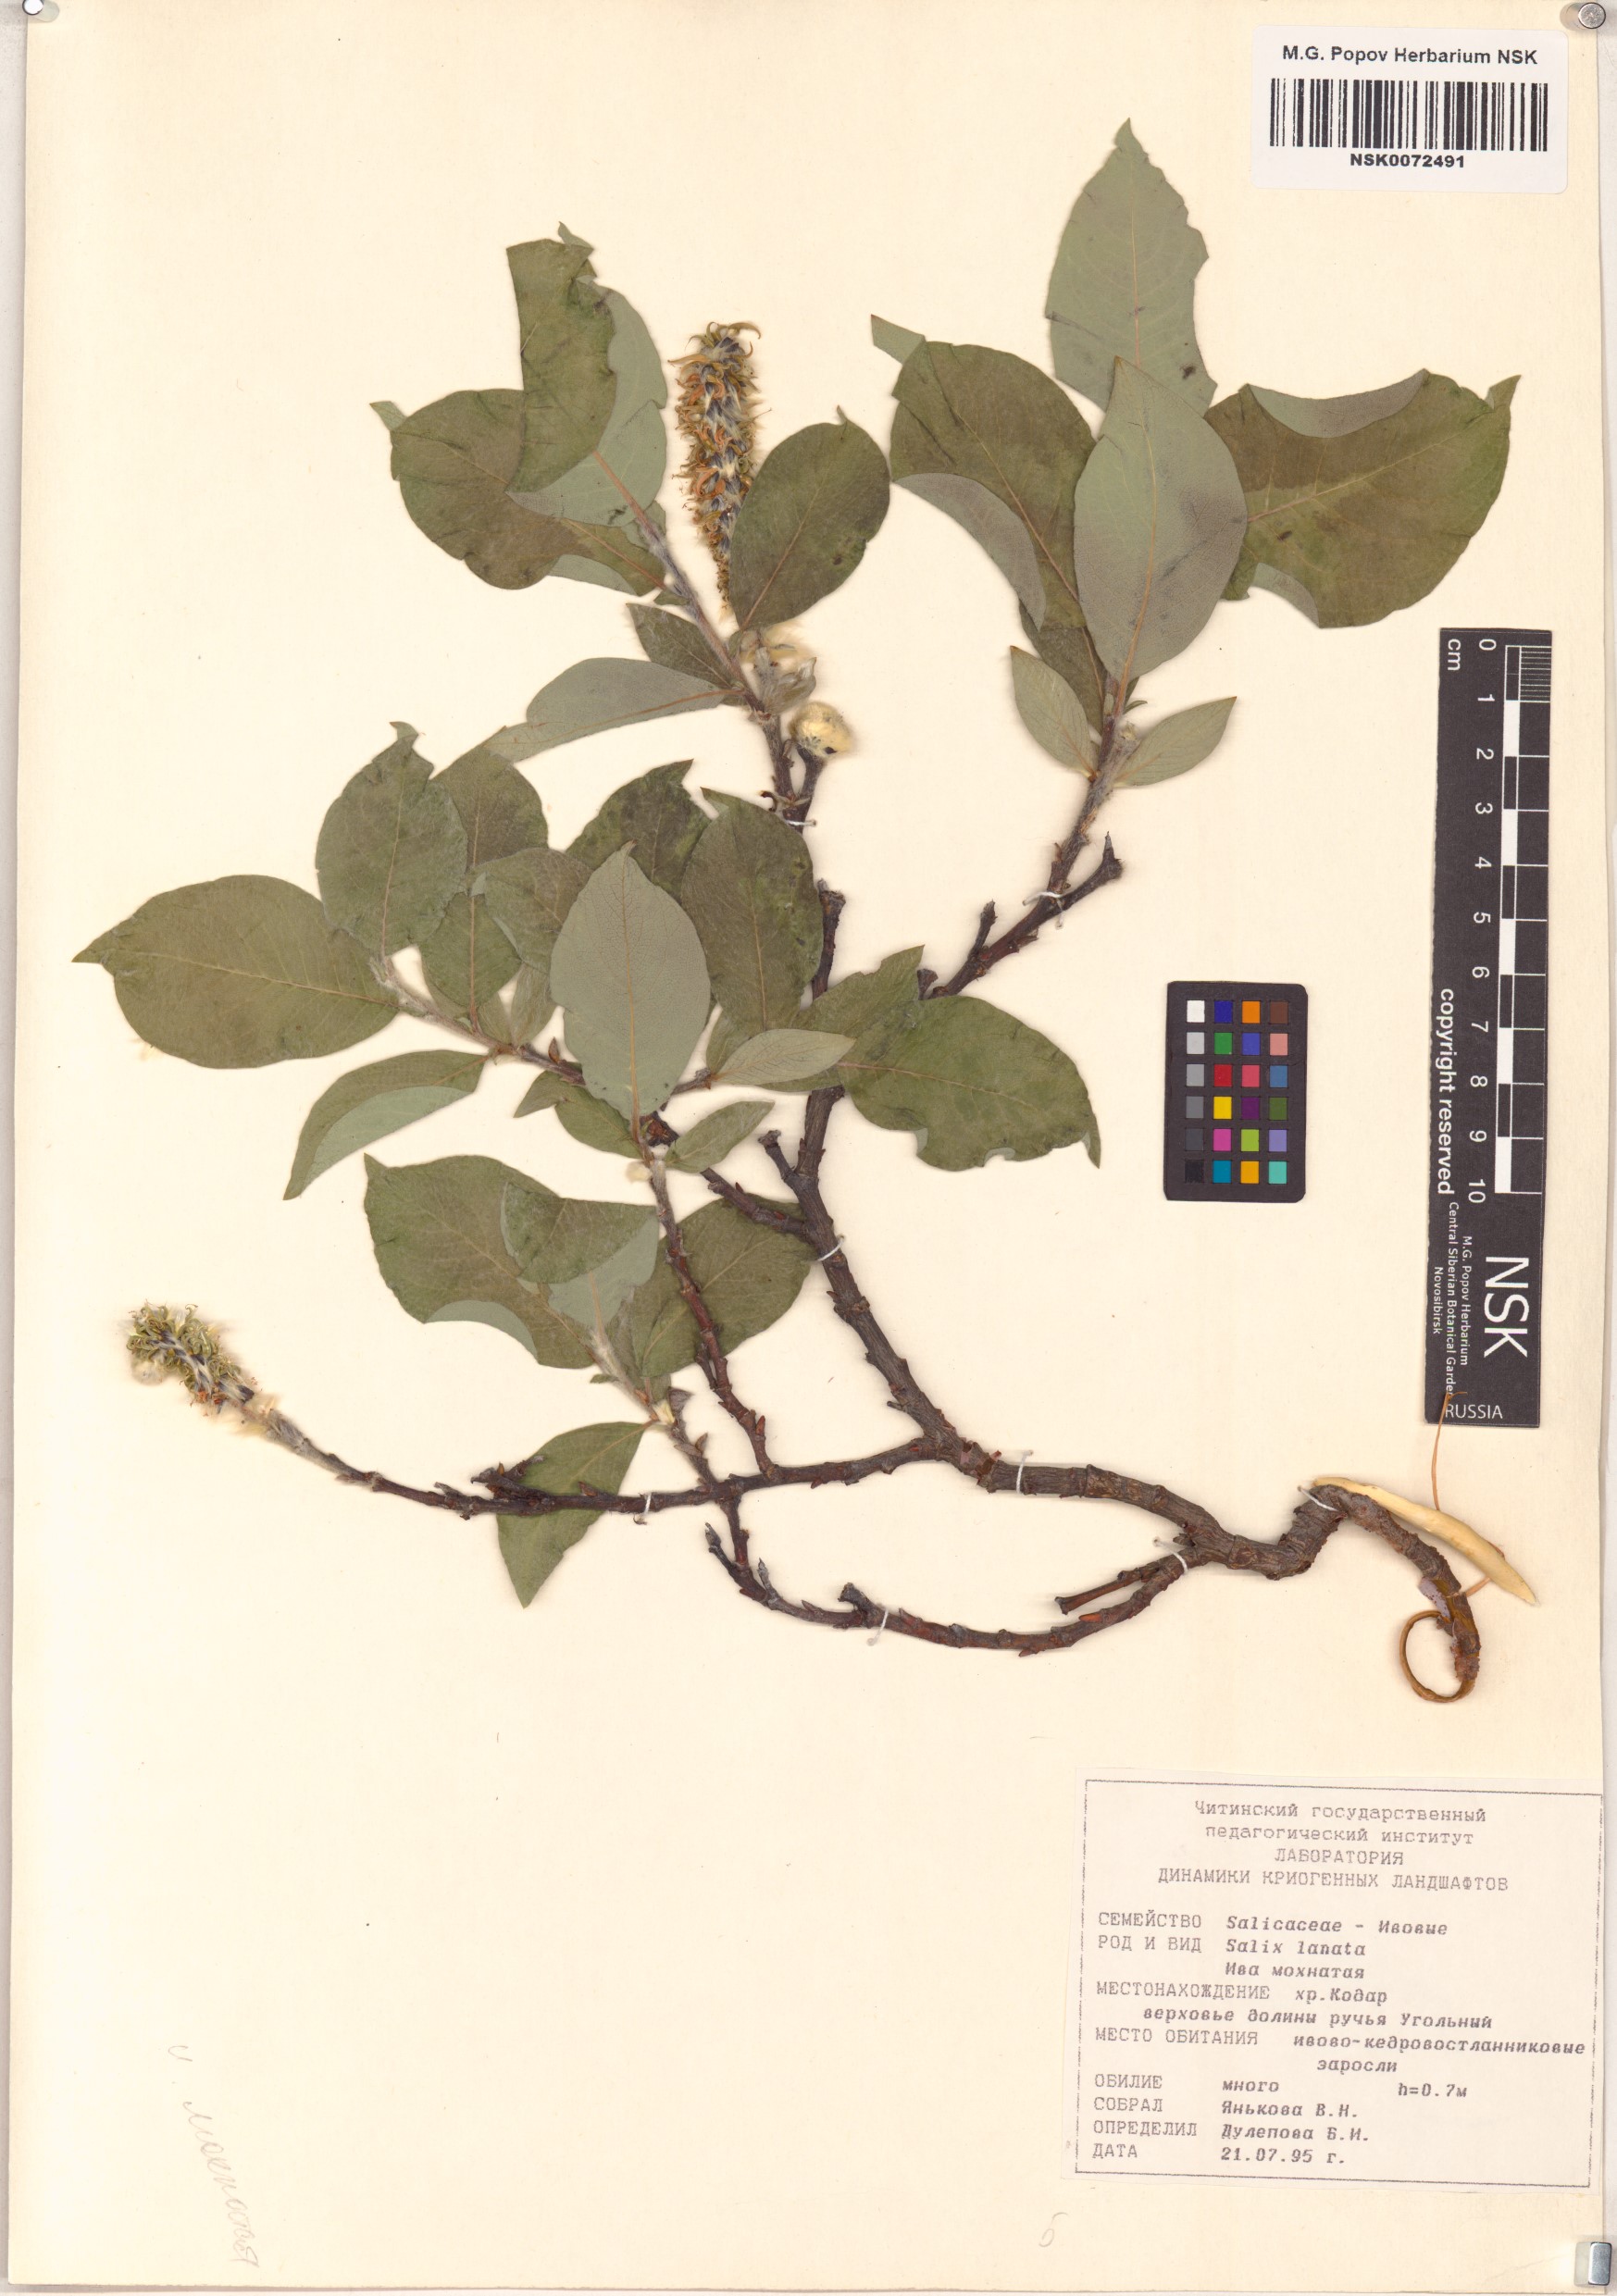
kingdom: Plantae
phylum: Tracheophyta
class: Magnoliopsida
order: Malpighiales
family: Salicaceae
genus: Salix
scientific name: Salix lanata
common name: Woolly willow
